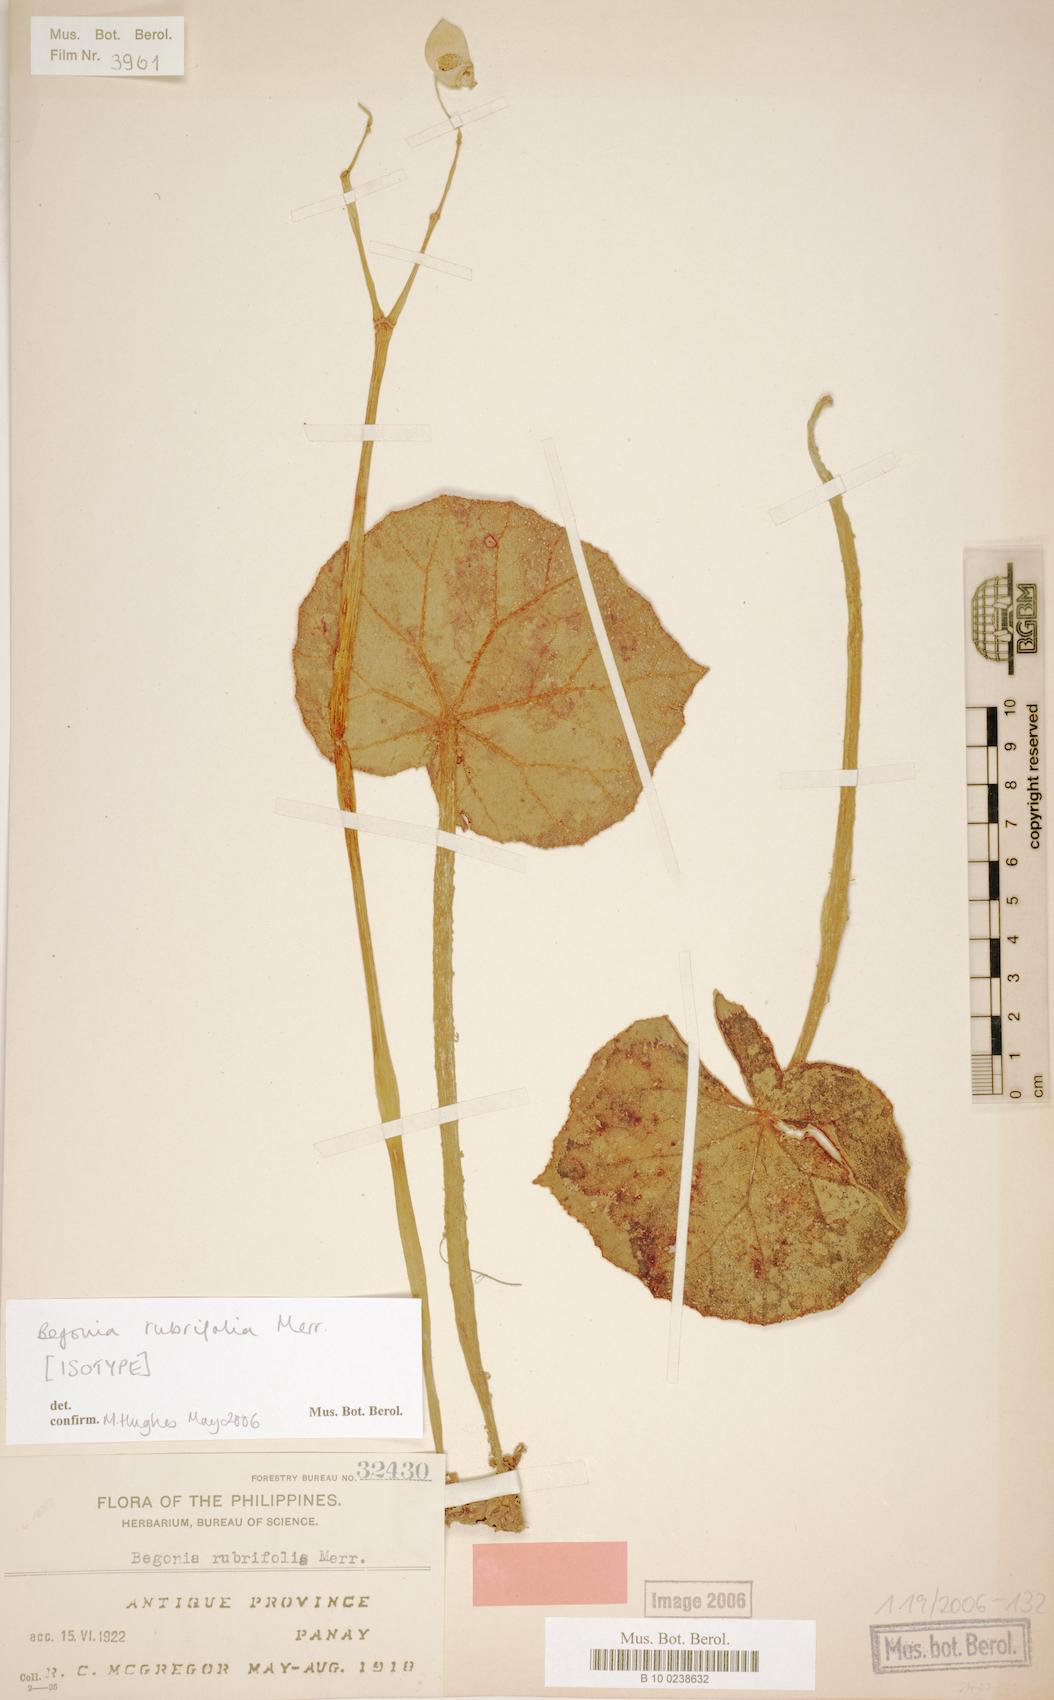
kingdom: Plantae
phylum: Tracheophyta
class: Magnoliopsida
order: Cucurbitales
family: Begoniaceae
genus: Begonia
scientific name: Begonia rubrifolia
